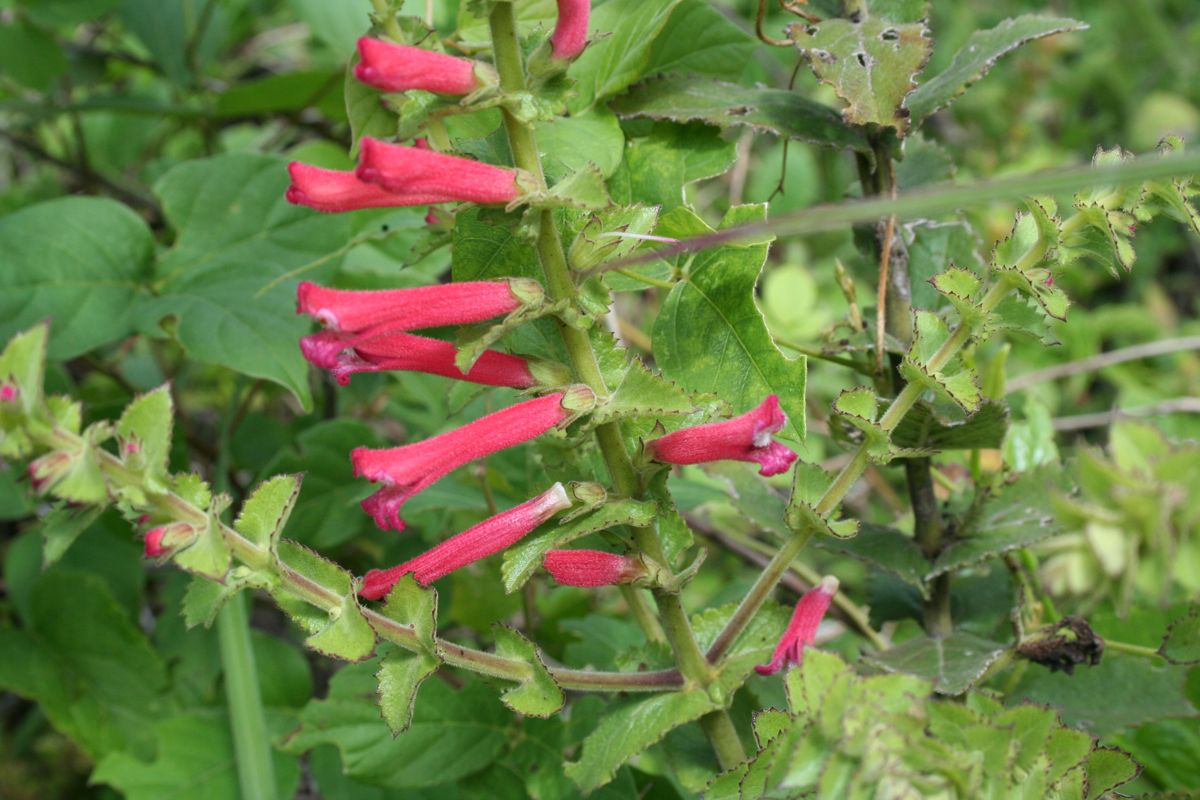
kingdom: Plantae
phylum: Tracheophyta
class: Magnoliopsida
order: Lamiales
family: Orobanchaceae
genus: Lamourouxia
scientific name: Lamourouxia viscosa
